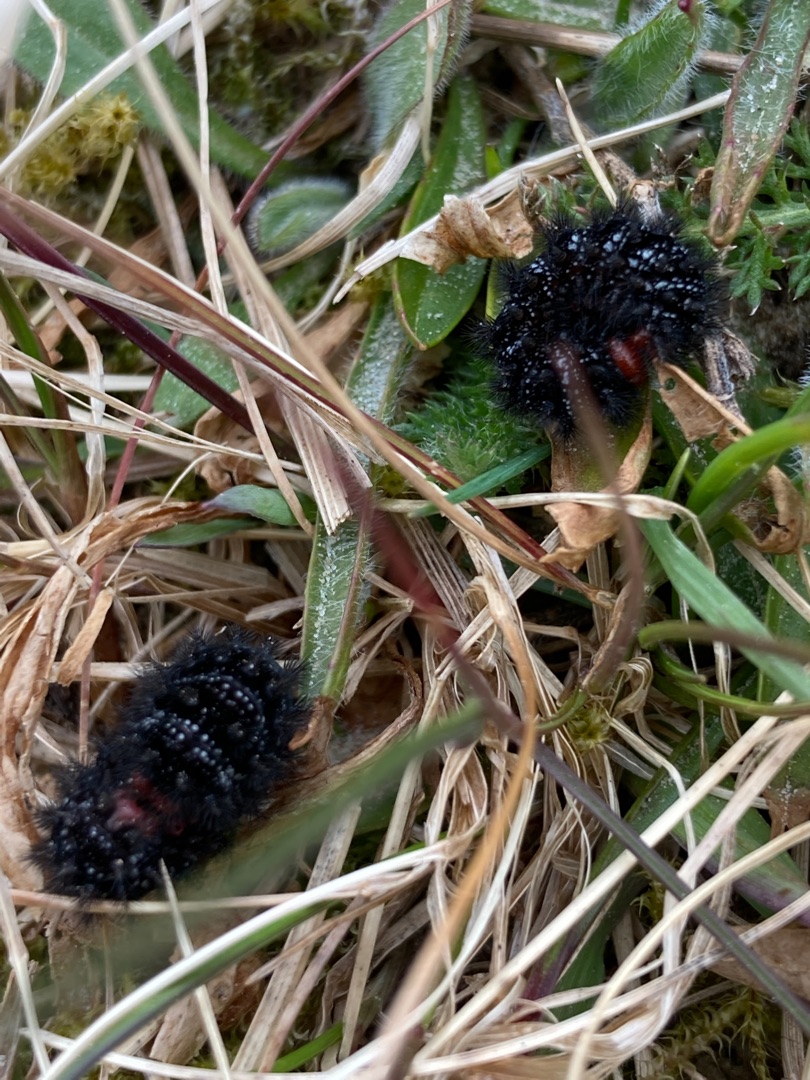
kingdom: Animalia
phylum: Arthropoda
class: Insecta
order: Lepidoptera
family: Nymphalidae
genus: Melitaea
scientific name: Melitaea cinxia
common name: Okkergul pletvinge
